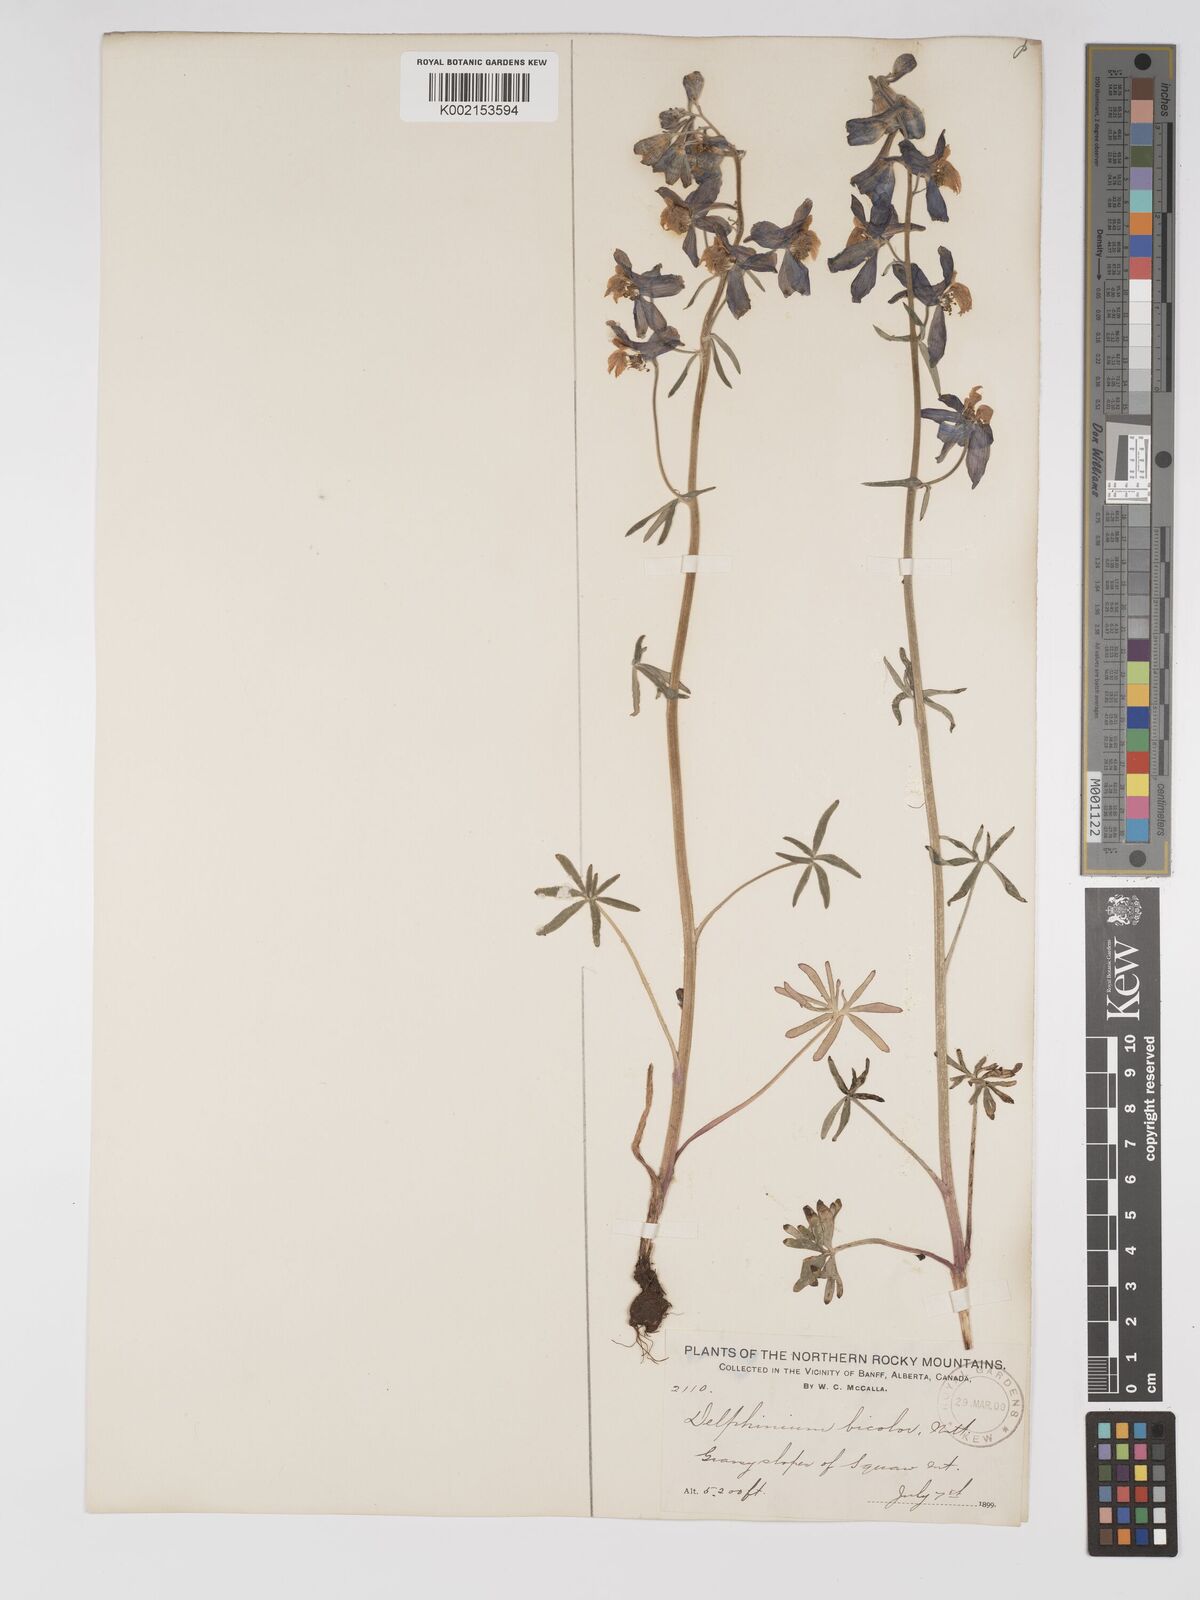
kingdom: Plantae
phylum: Tracheophyta
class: Magnoliopsida
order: Ranunculales
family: Ranunculaceae
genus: Delphinium
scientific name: Delphinium bicolor
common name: Low larkspur
